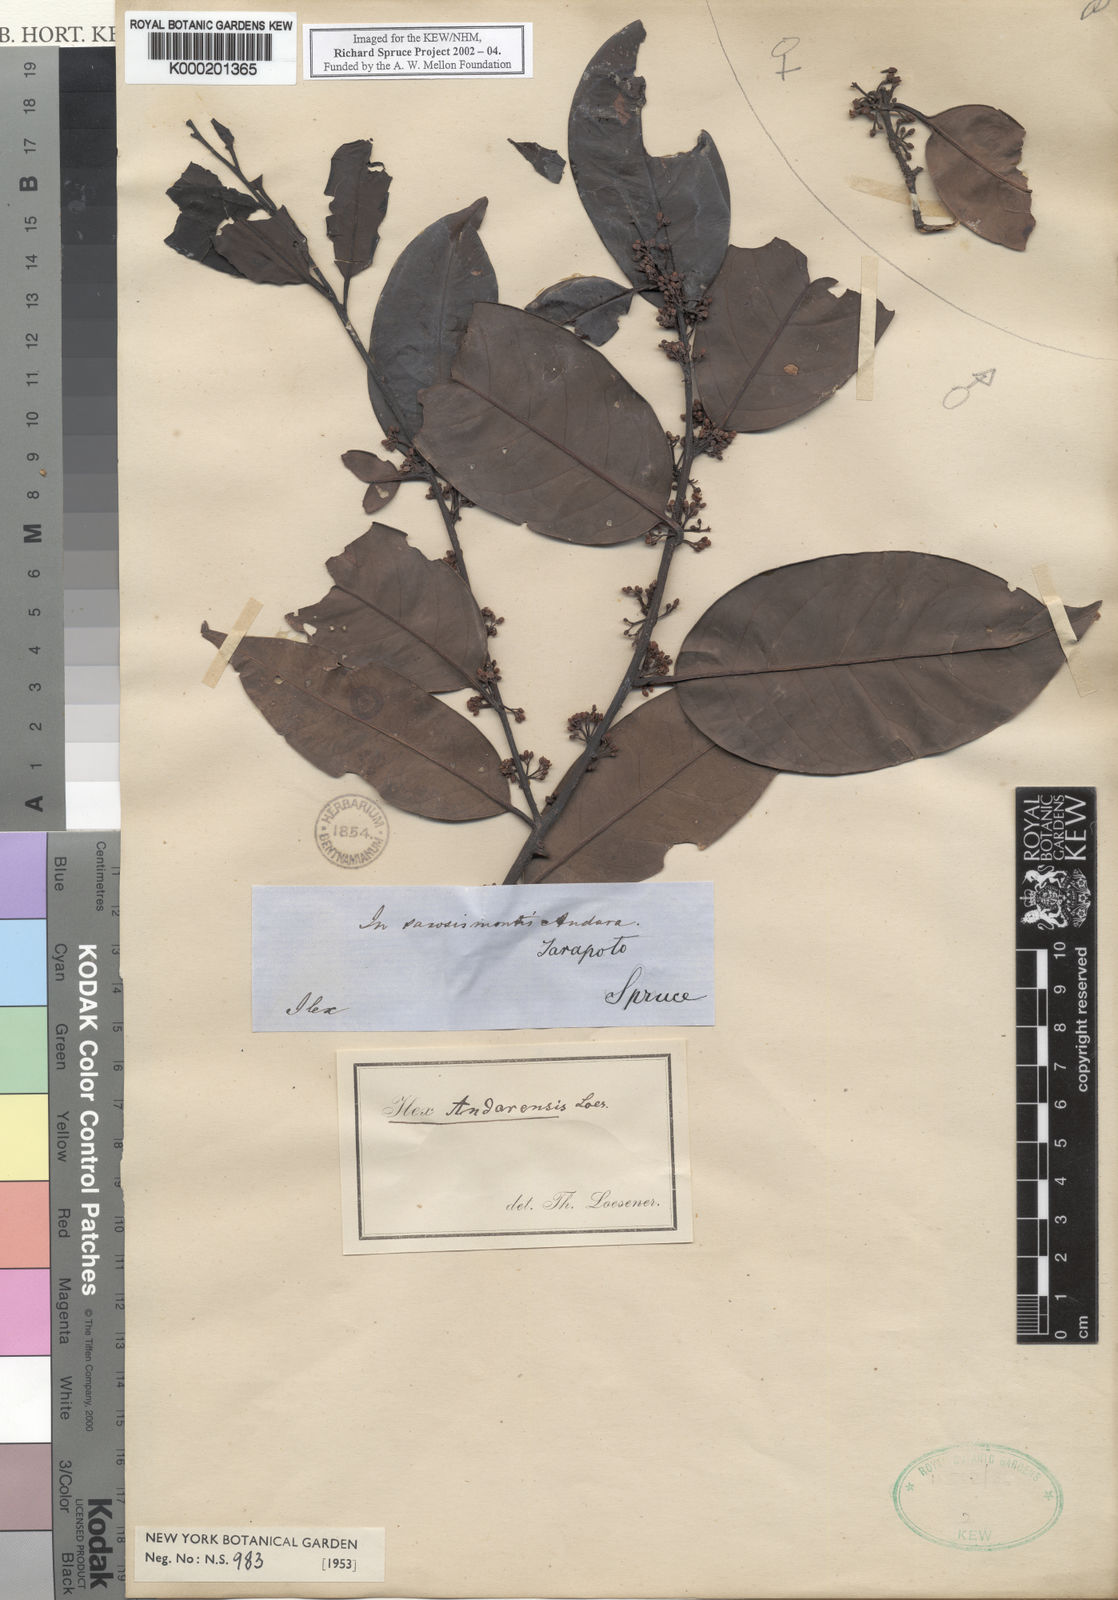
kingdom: Plantae
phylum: Tracheophyta
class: Magnoliopsida
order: Aquifoliales
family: Aquifoliaceae
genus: Ilex
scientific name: Ilex vismiifolia
